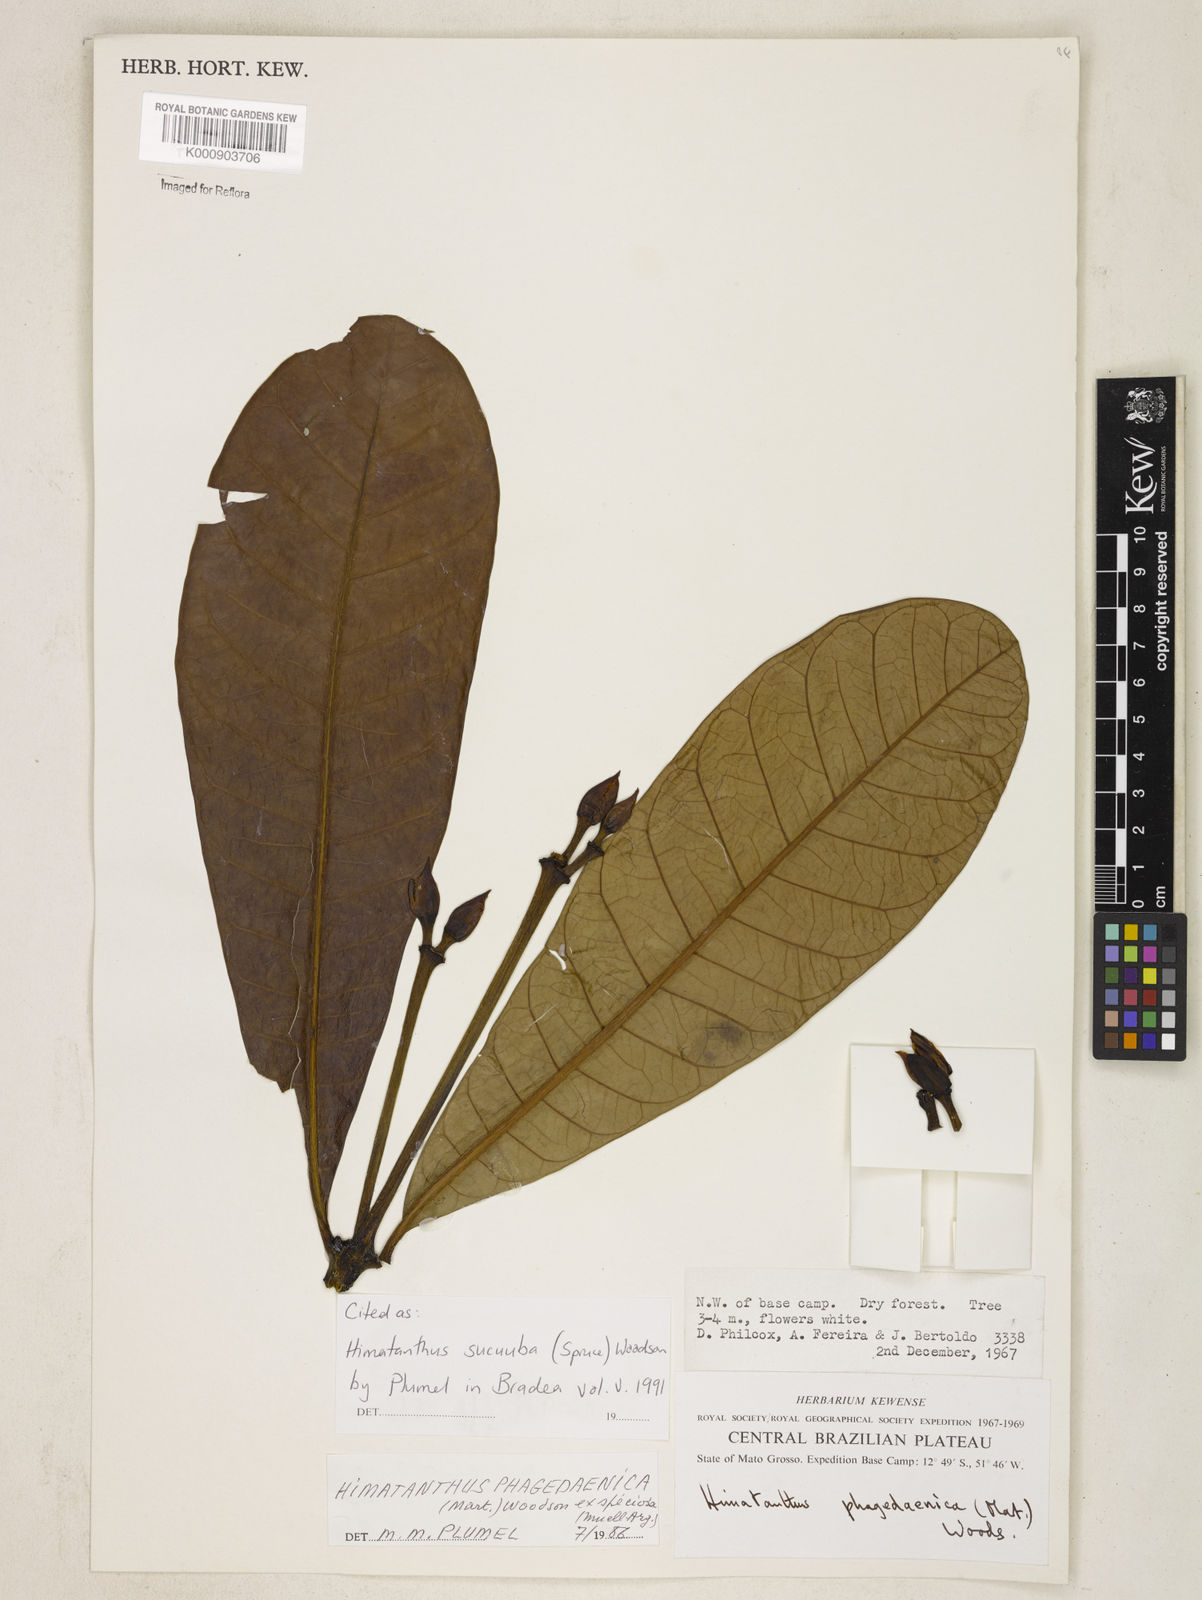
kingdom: Plantae
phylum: Tracheophyta
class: Magnoliopsida
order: Gentianales
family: Apocynaceae
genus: Himatanthus
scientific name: Himatanthus articulatus
